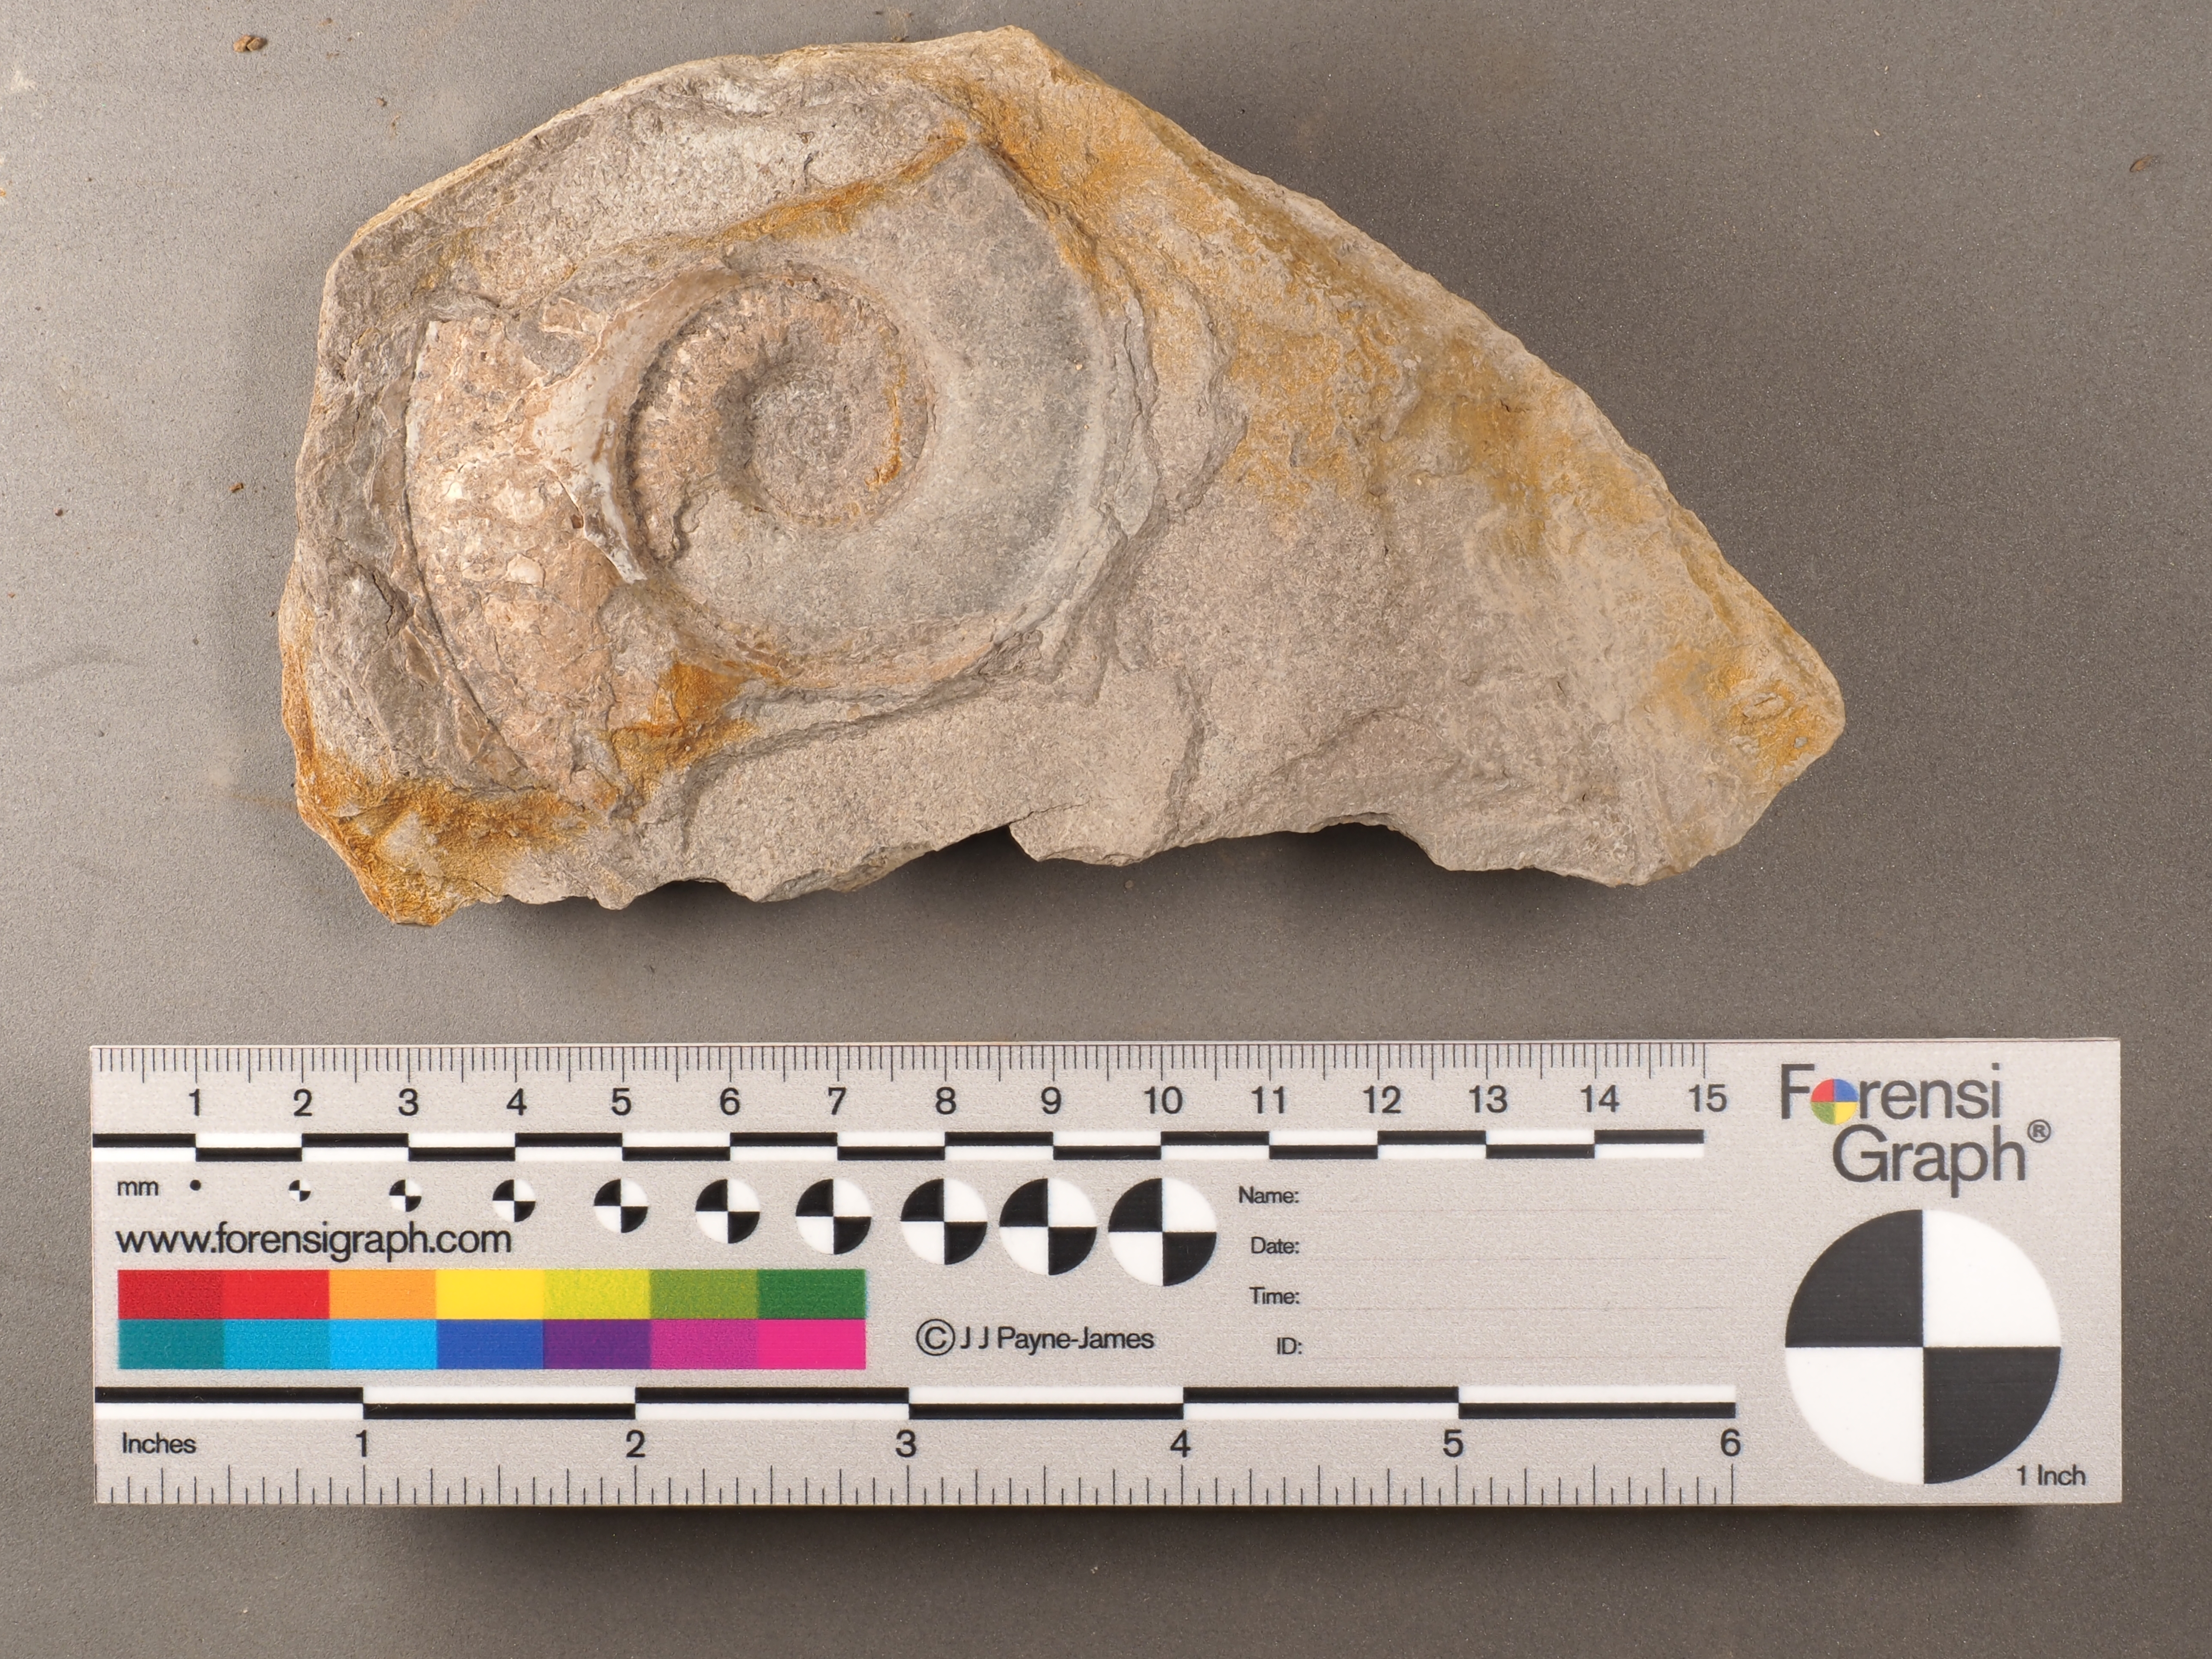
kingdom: Animalia
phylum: Mollusca
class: Cephalopoda
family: Hildoceratidae
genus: Hildaites
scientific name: Hildaites murleyi
